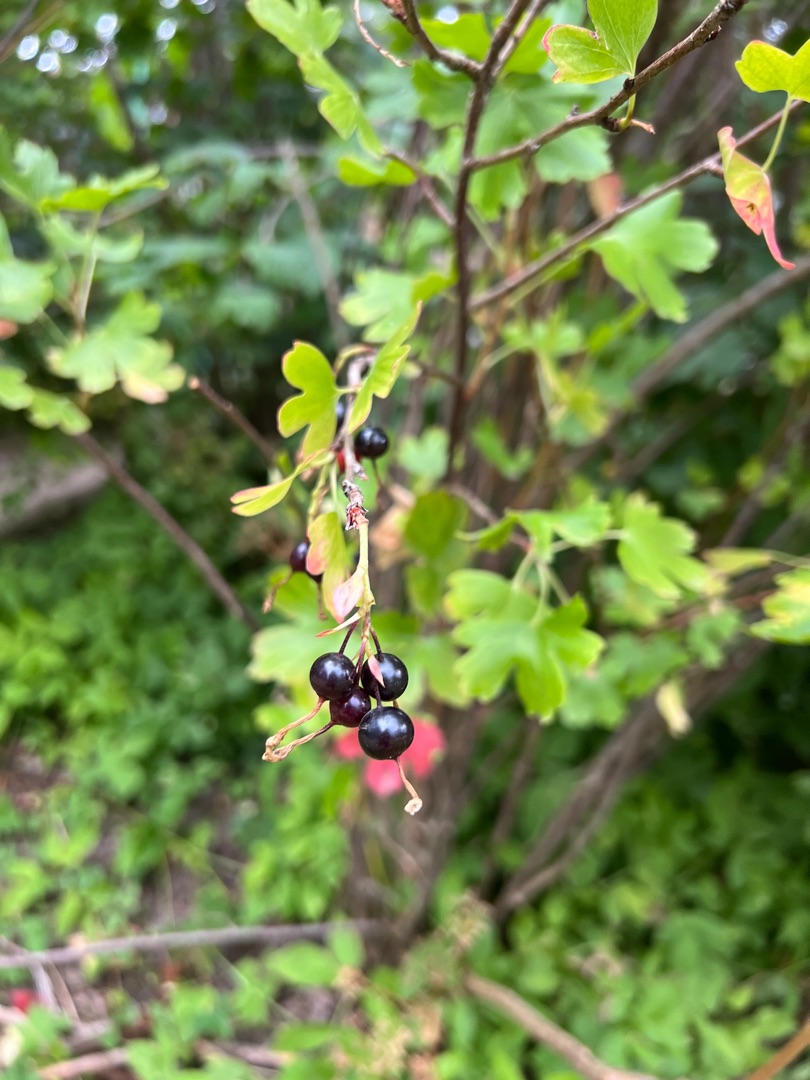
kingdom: Plantae
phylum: Tracheophyta
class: Magnoliopsida
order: Saxifragales
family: Grossulariaceae
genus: Ribes
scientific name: Ribes aureum
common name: Guld-ribs
